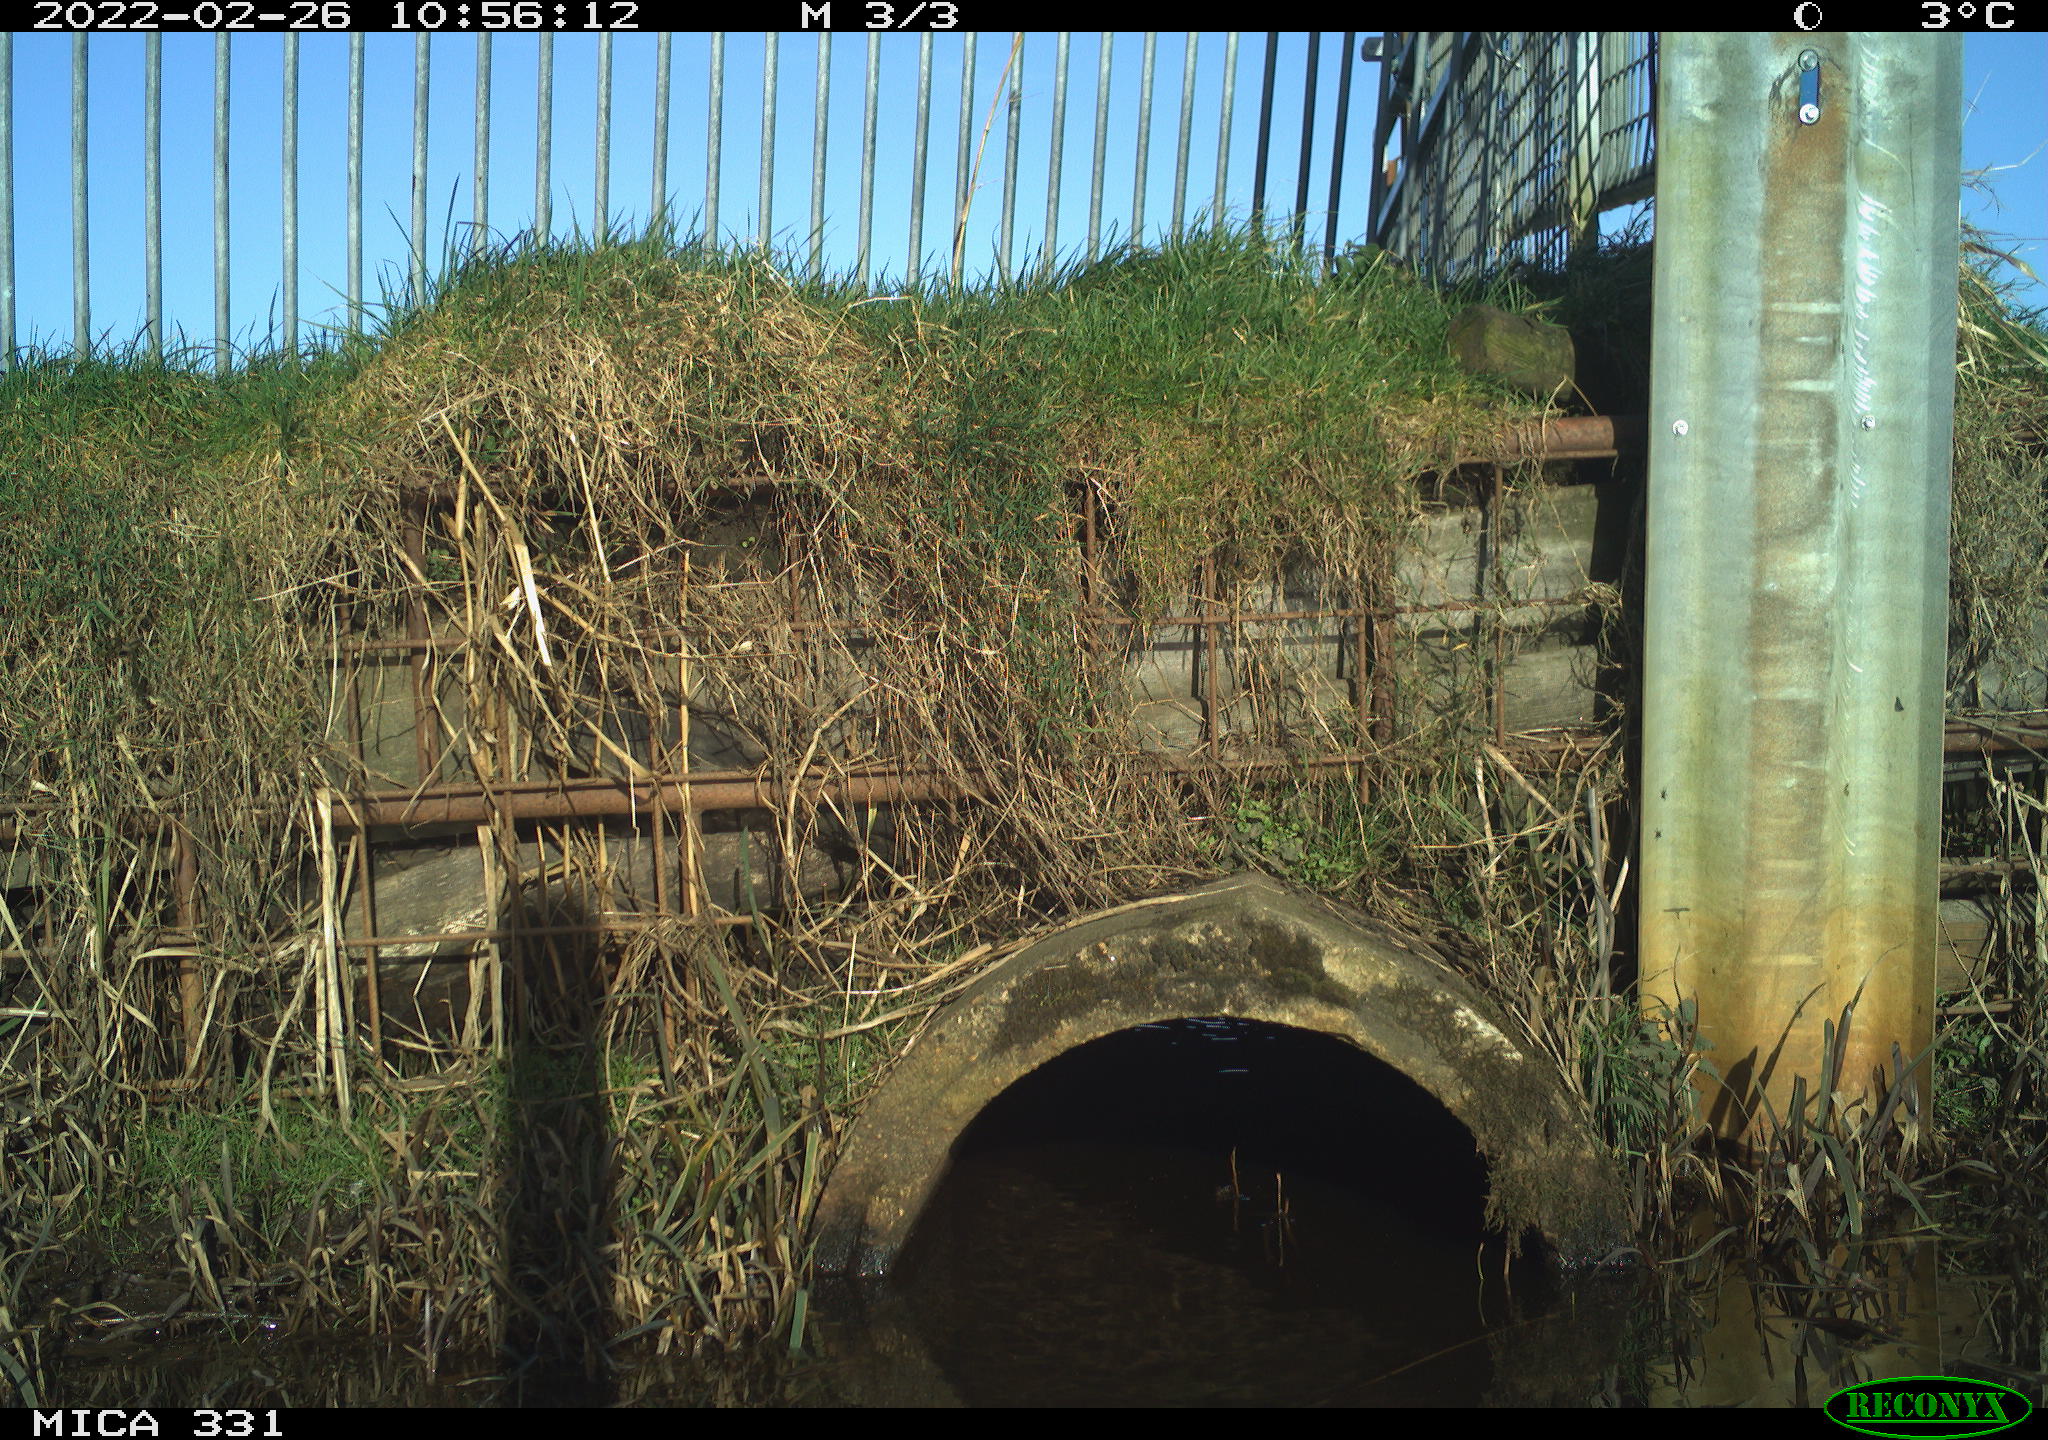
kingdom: Animalia
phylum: Chordata
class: Aves
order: Pelecaniformes
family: Ardeidae
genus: Ardea
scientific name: Ardea alba
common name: Great egret
